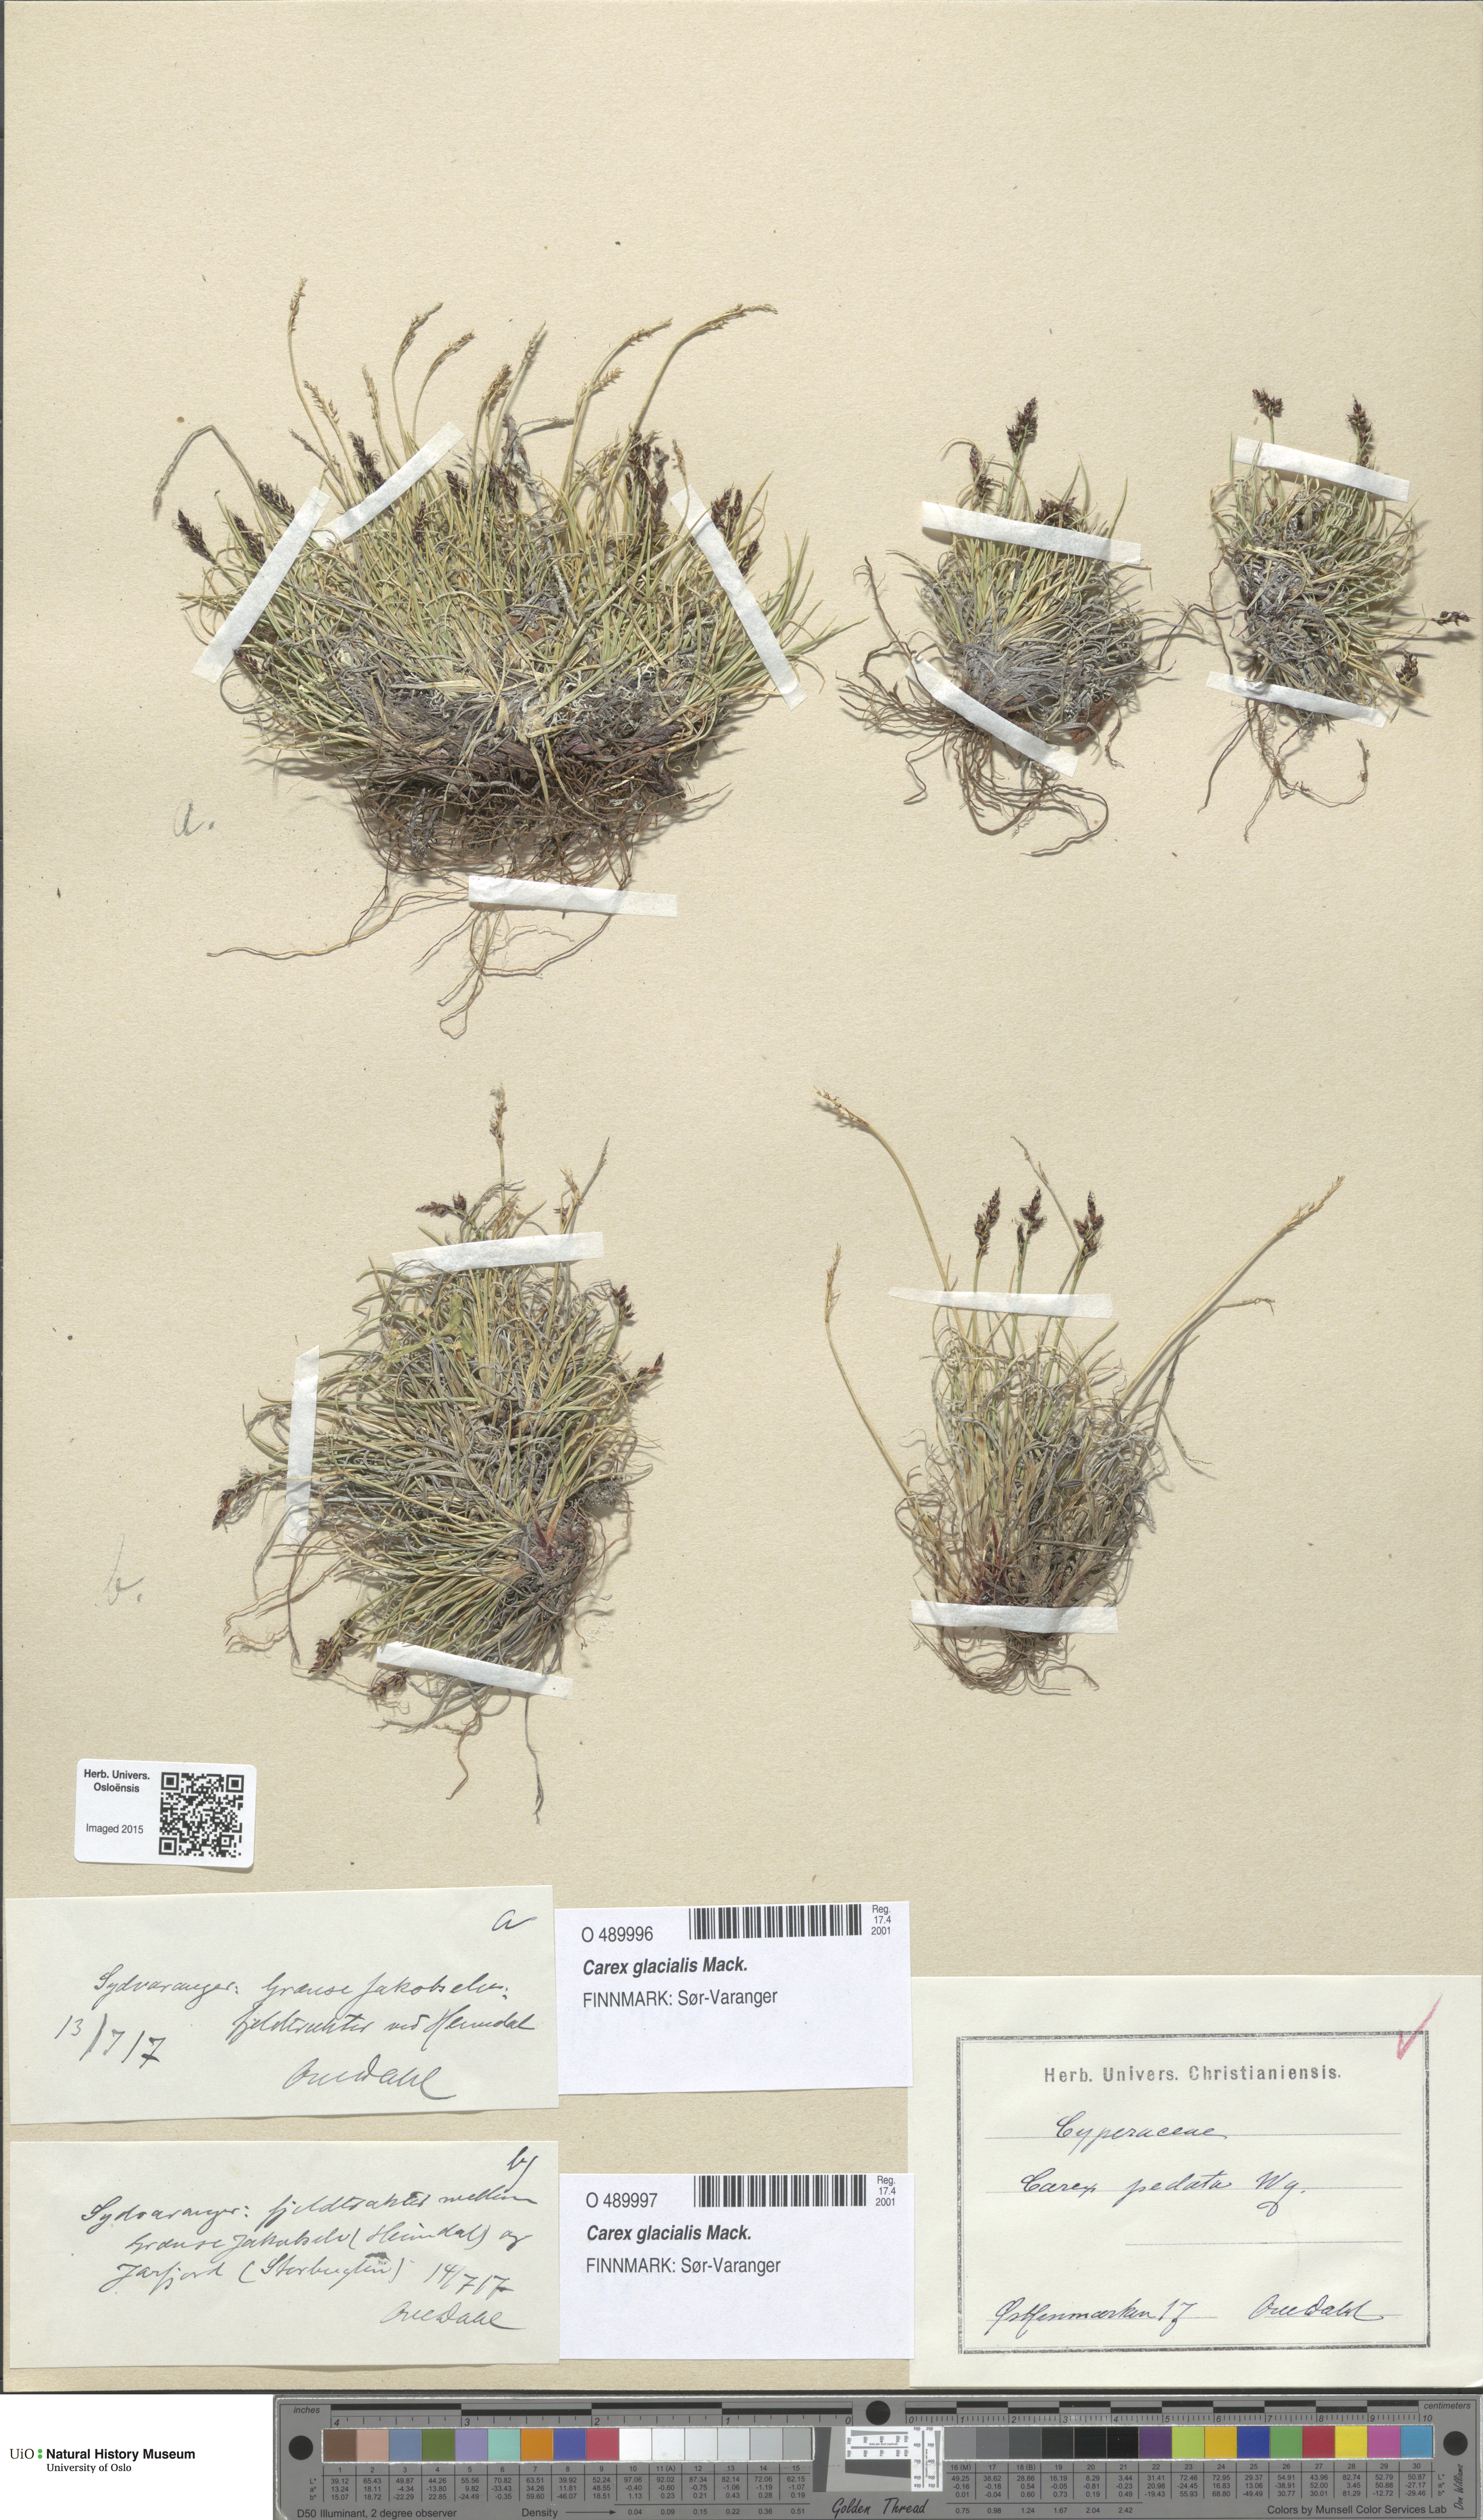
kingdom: Plantae
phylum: Tracheophyta
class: Liliopsida
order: Poales
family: Cyperaceae
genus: Carex
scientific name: Carex glacialis
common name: Newfoundland sedge
